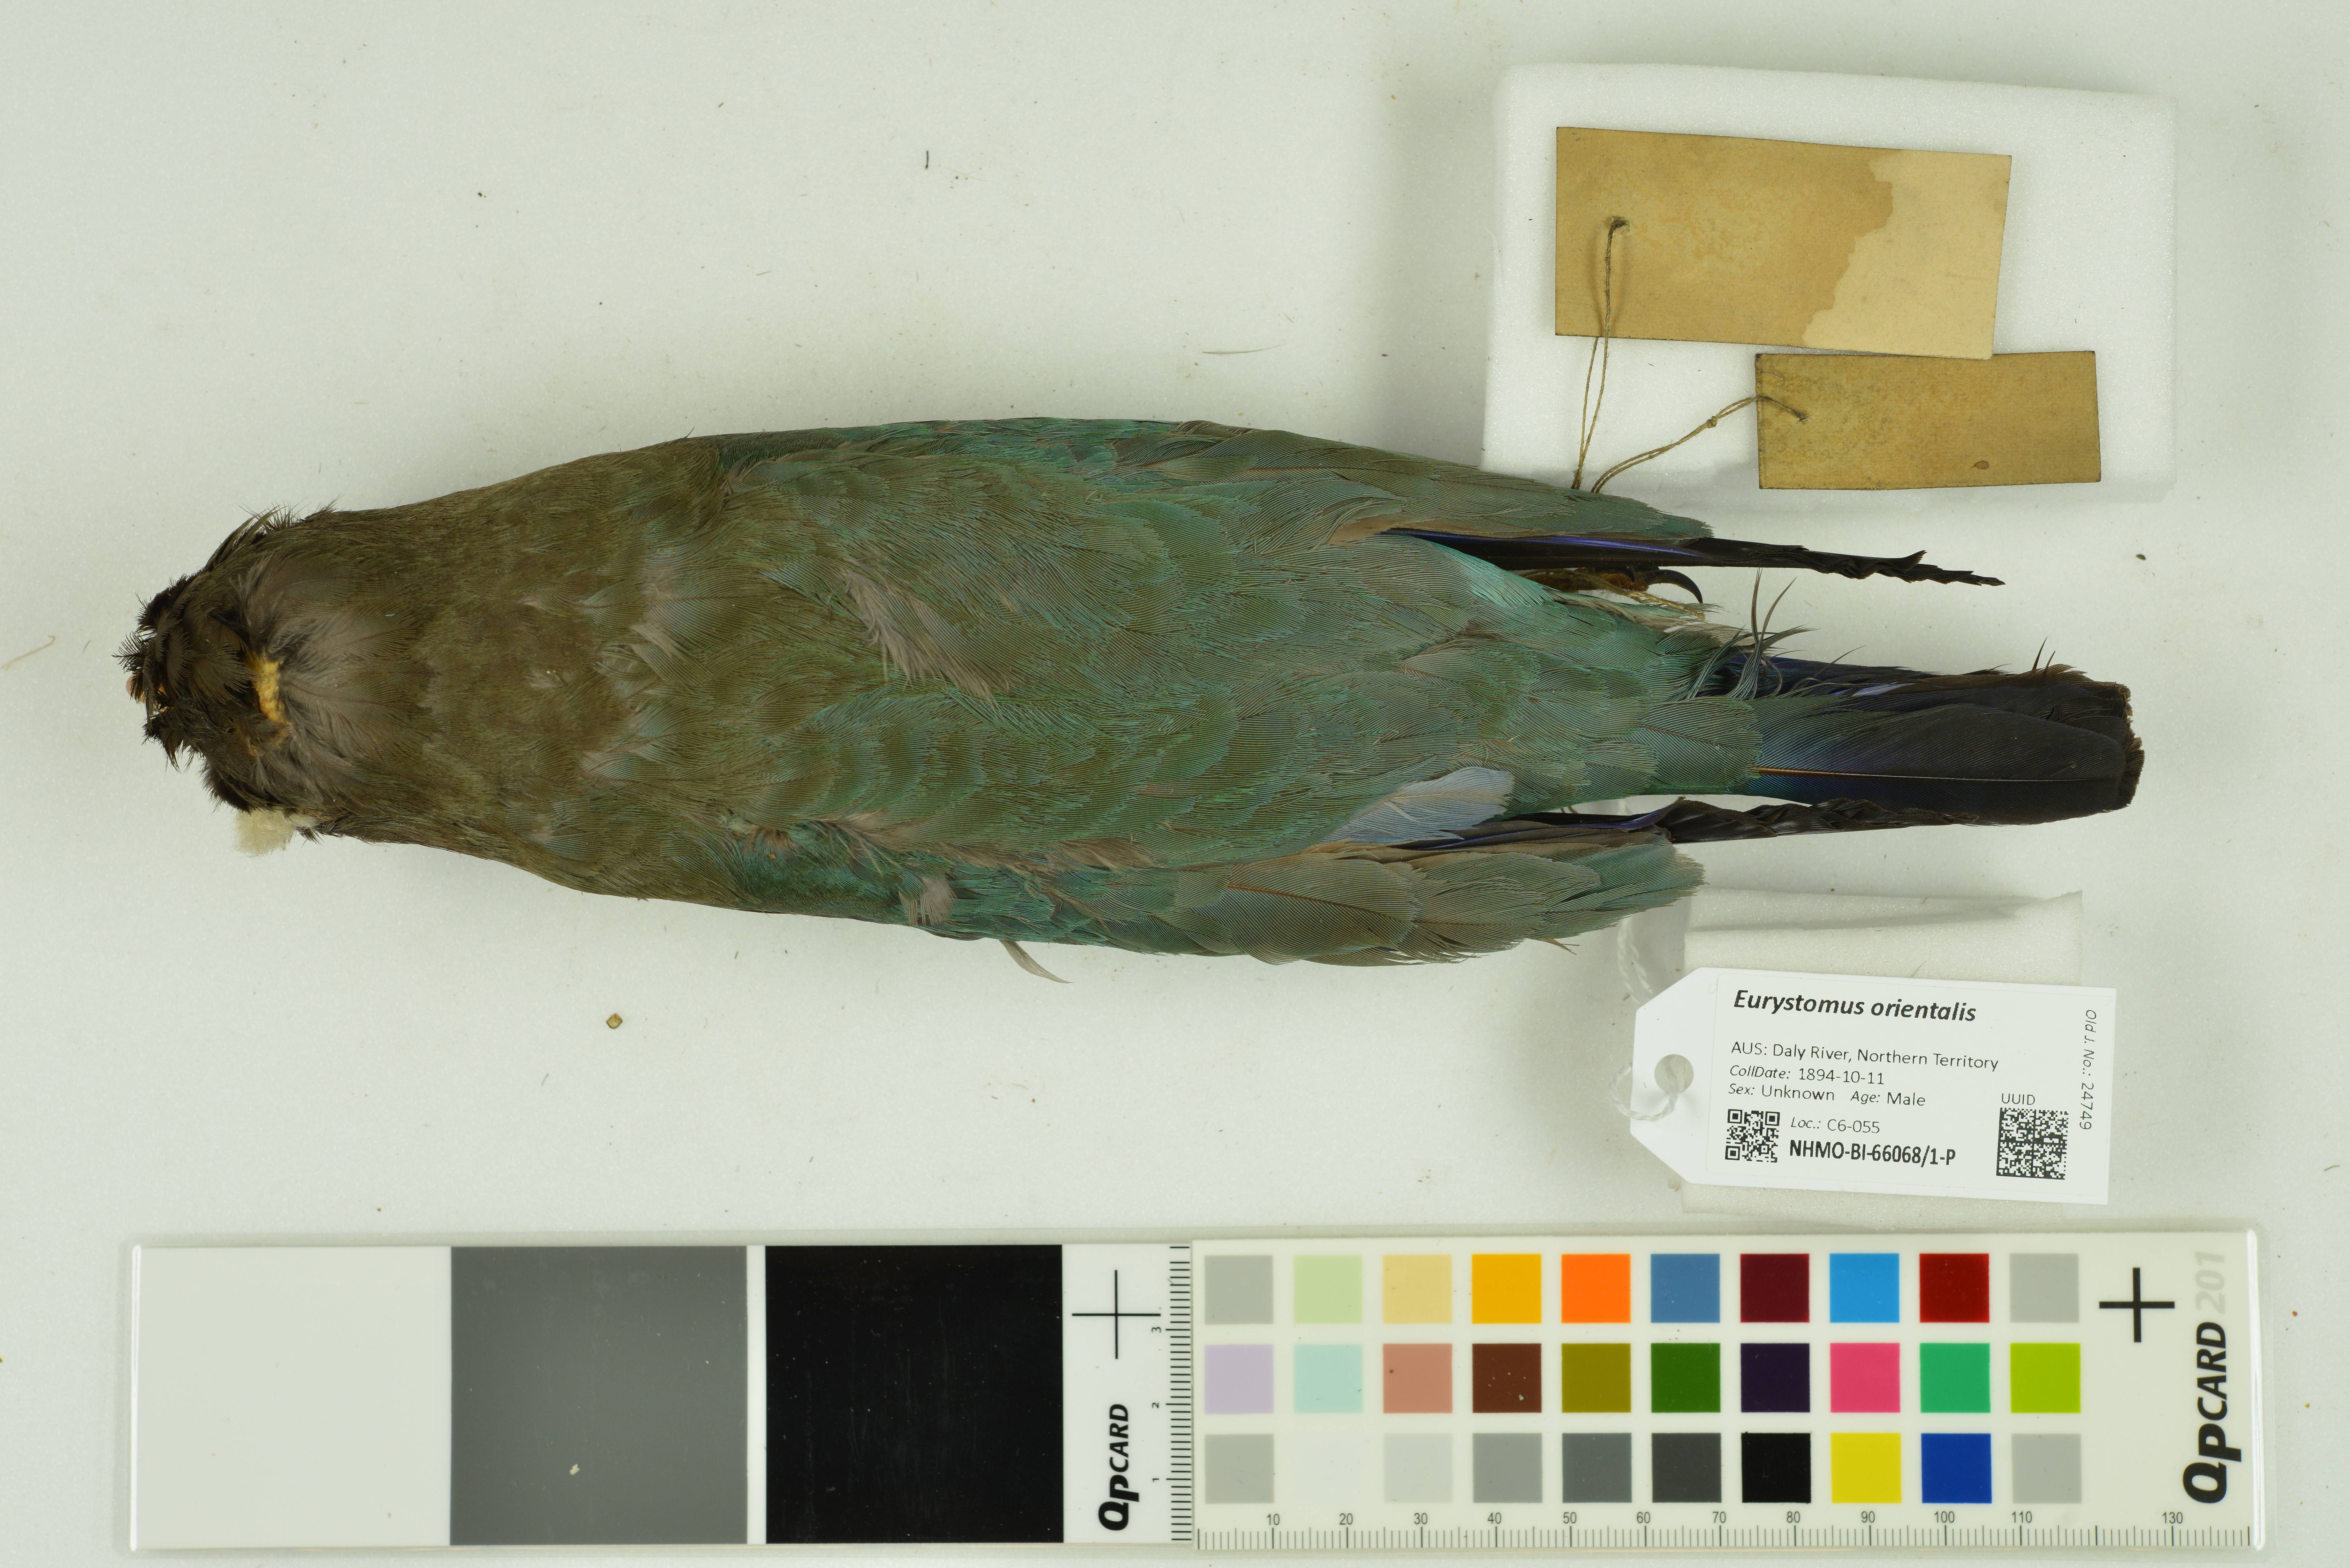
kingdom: Animalia
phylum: Chordata
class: Aves
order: Coraciiformes
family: Coraciidae
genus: Eurystomus
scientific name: Eurystomus orientalis
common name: Oriental dollarbird
